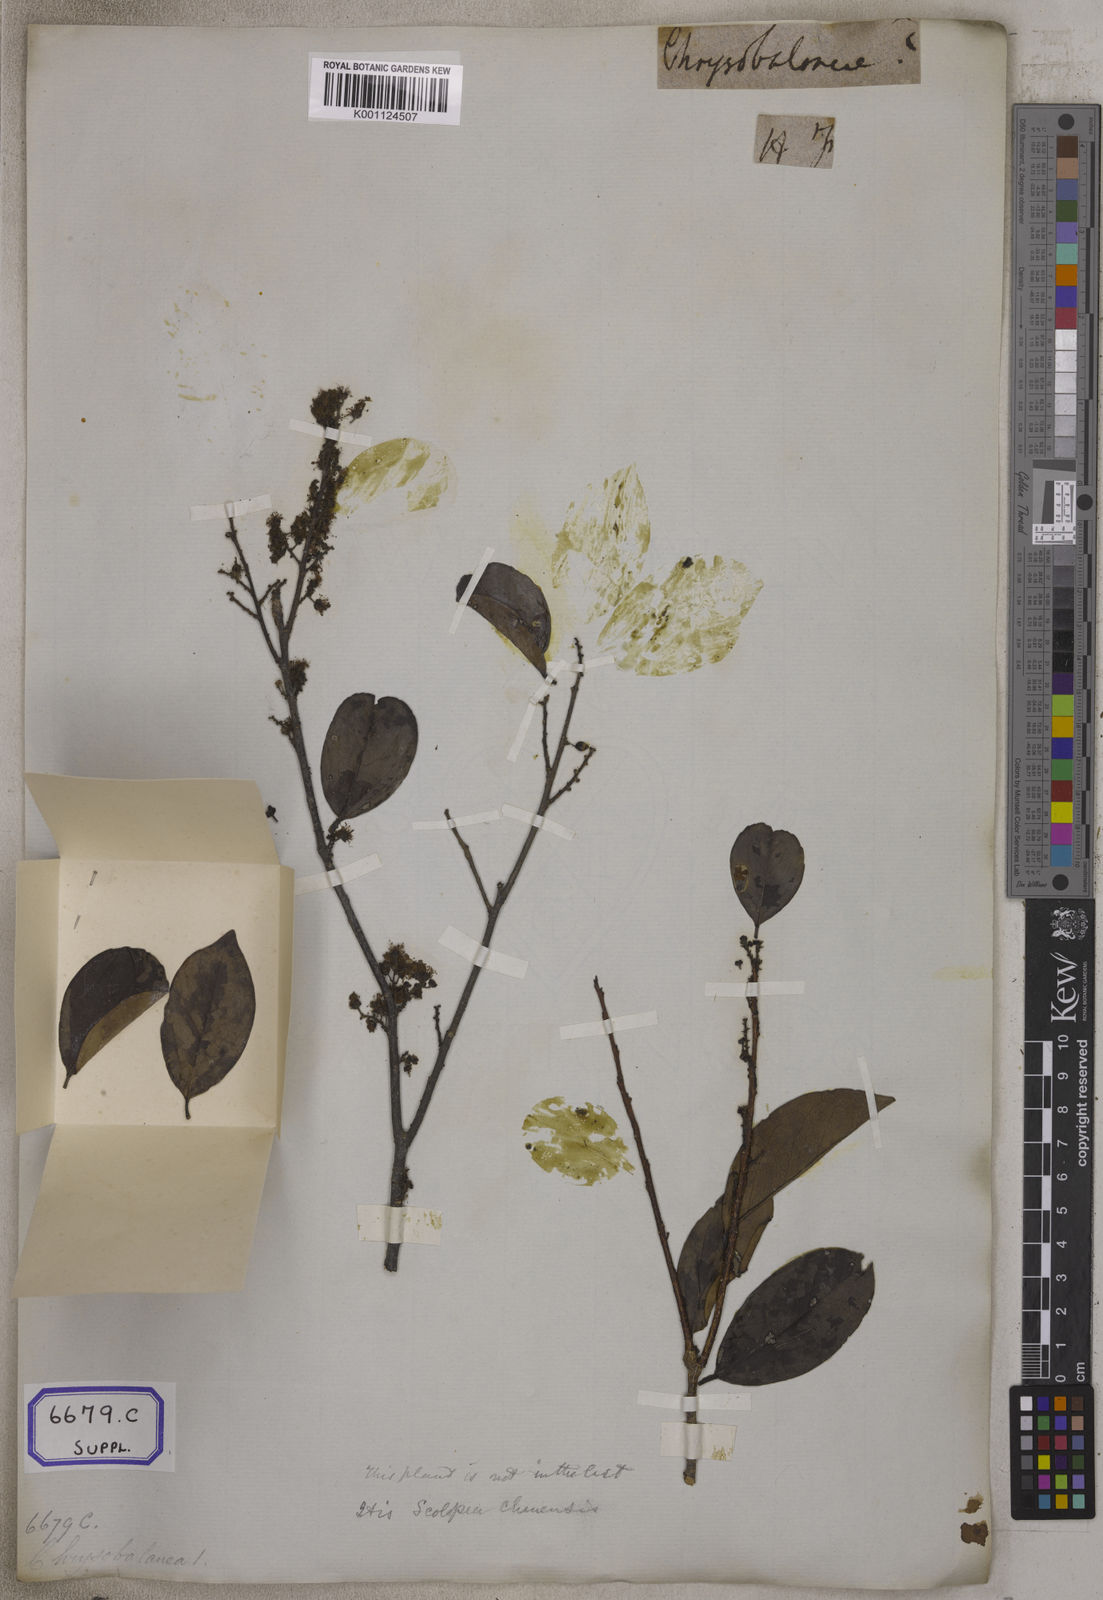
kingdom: Plantae
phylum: Tracheophyta
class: Magnoliopsida
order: Malpighiales
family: Salicaceae
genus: Scolopia
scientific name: Scolopia luzonensis
